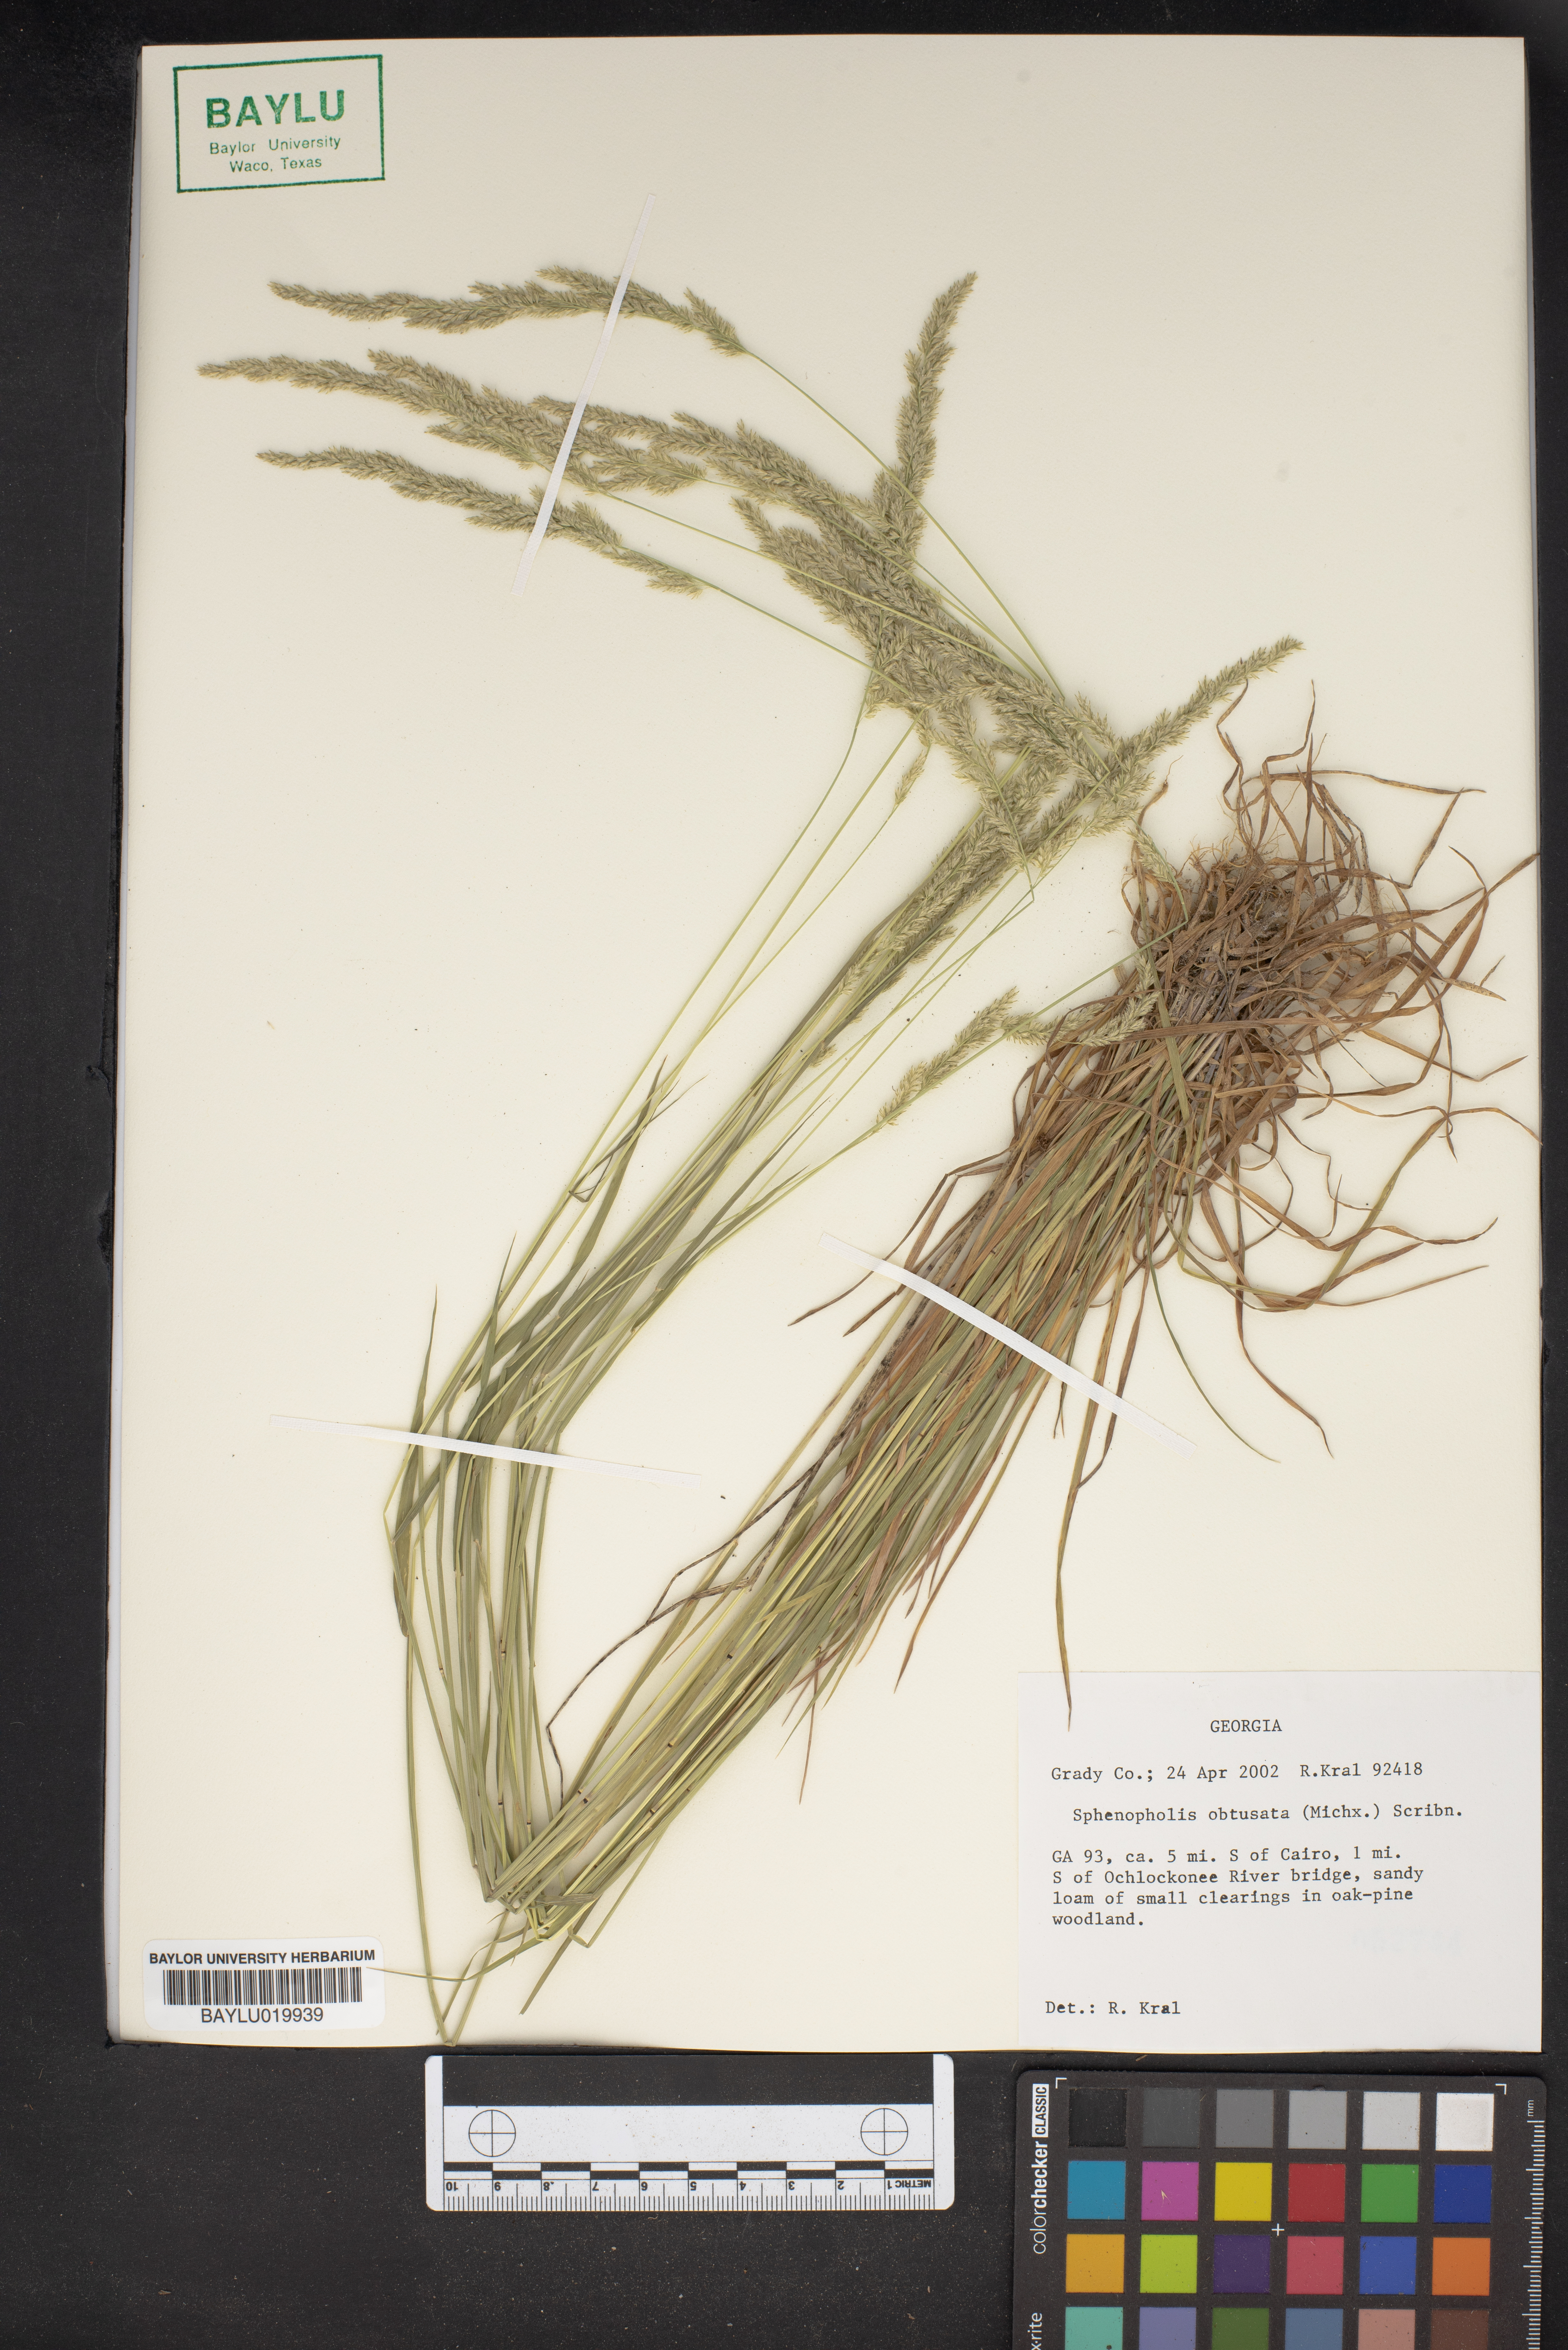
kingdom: Plantae
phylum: Tracheophyta
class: Liliopsida
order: Poales
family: Poaceae
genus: Sphenopholis
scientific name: Sphenopholis obtusata
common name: Prairie grass
